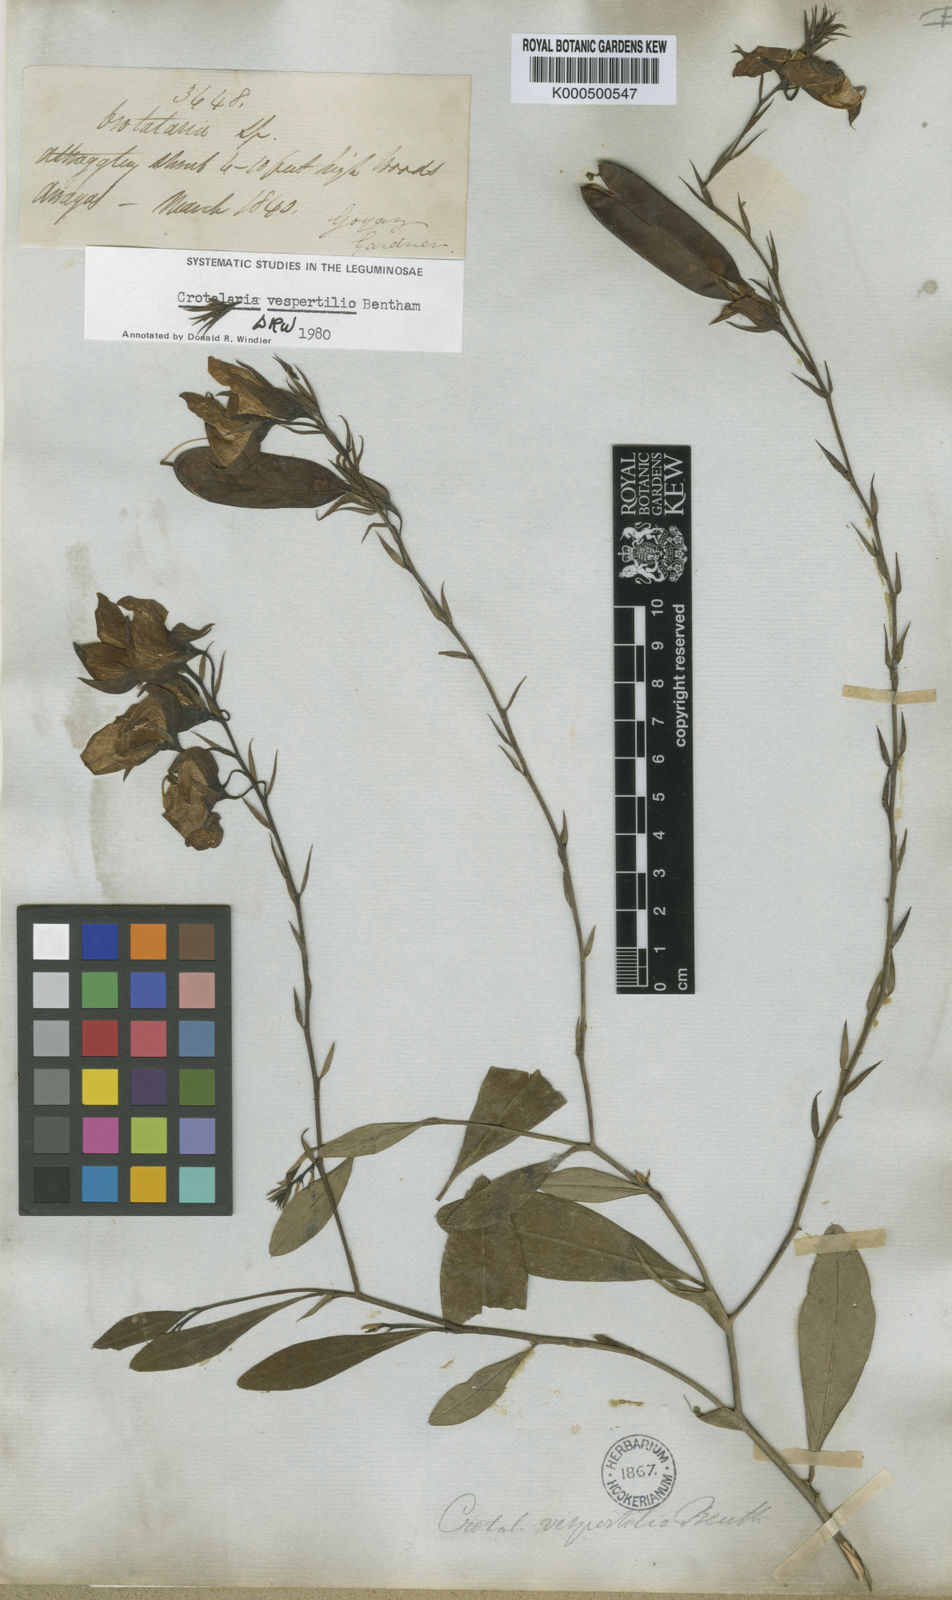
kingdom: Plantae
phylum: Tracheophyta
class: Magnoliopsida
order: Fabales
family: Fabaceae
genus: Crotalaria
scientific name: Crotalaria vespertilio
